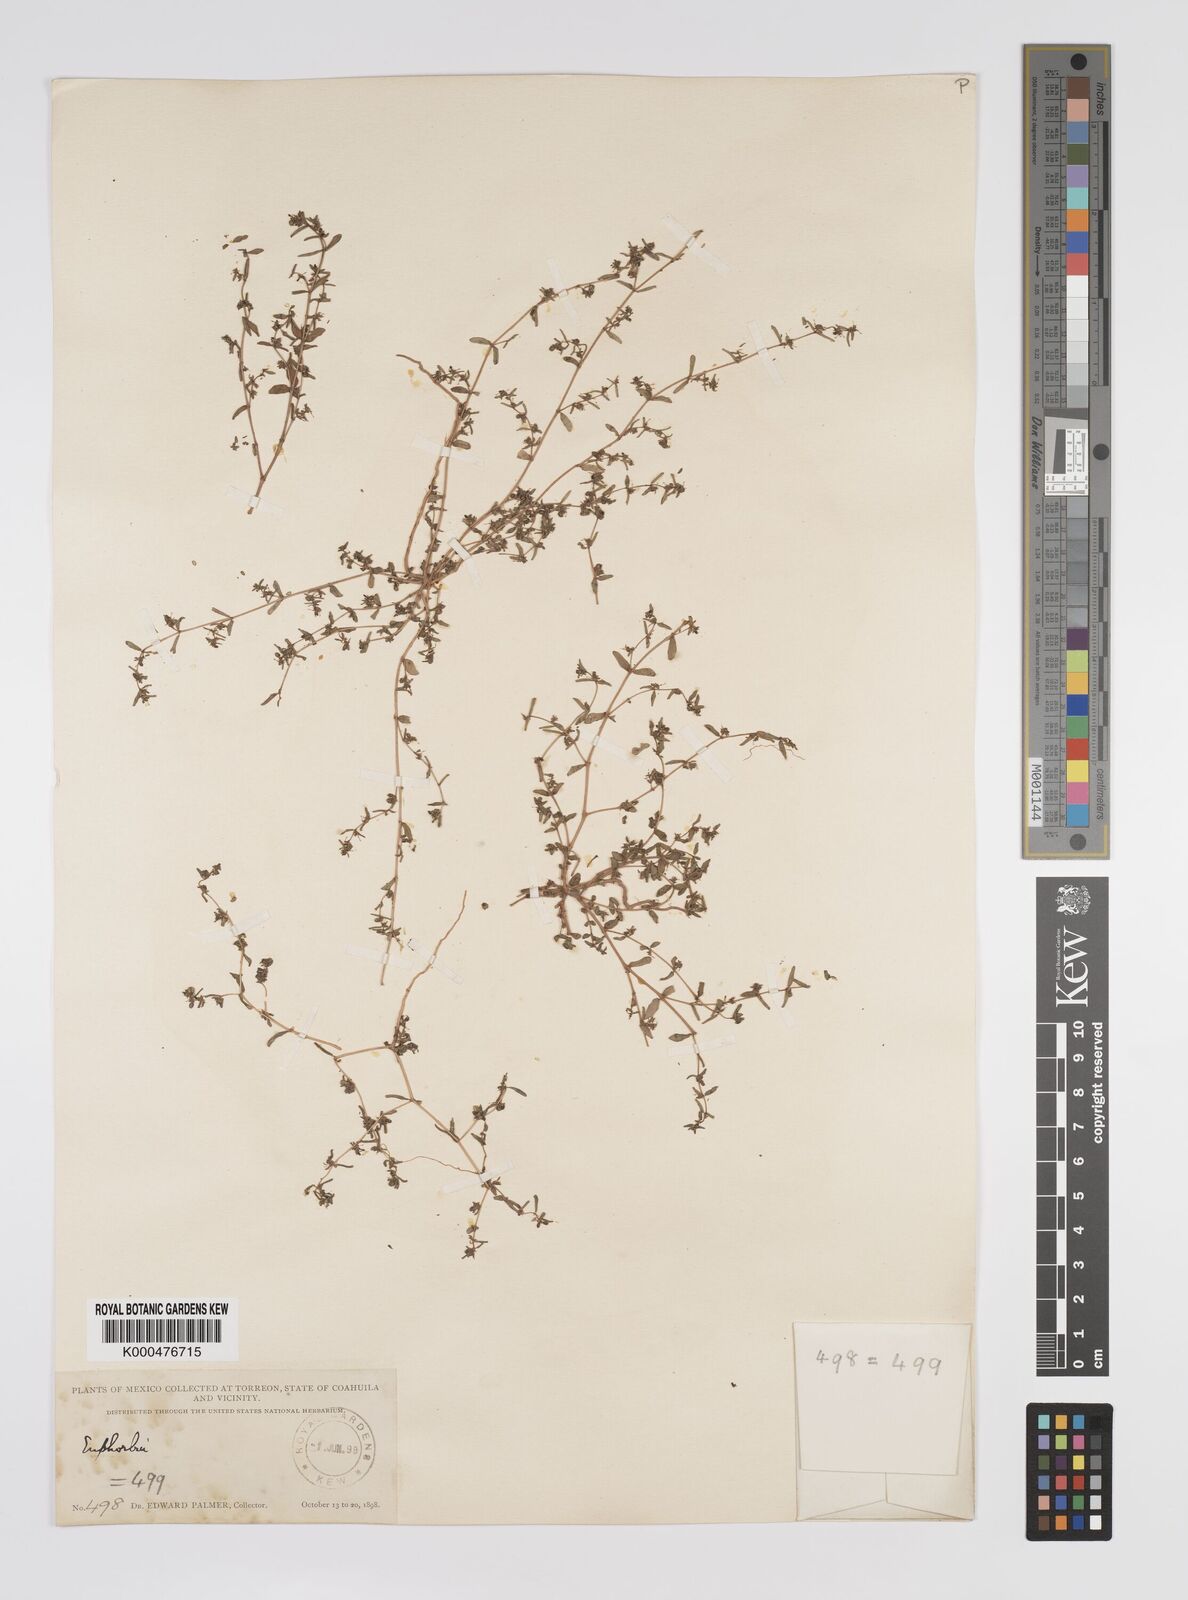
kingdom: Plantae
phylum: Tracheophyta
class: Magnoliopsida
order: Malpighiales
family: Euphorbiaceae
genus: Euphorbia
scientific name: Euphorbia
